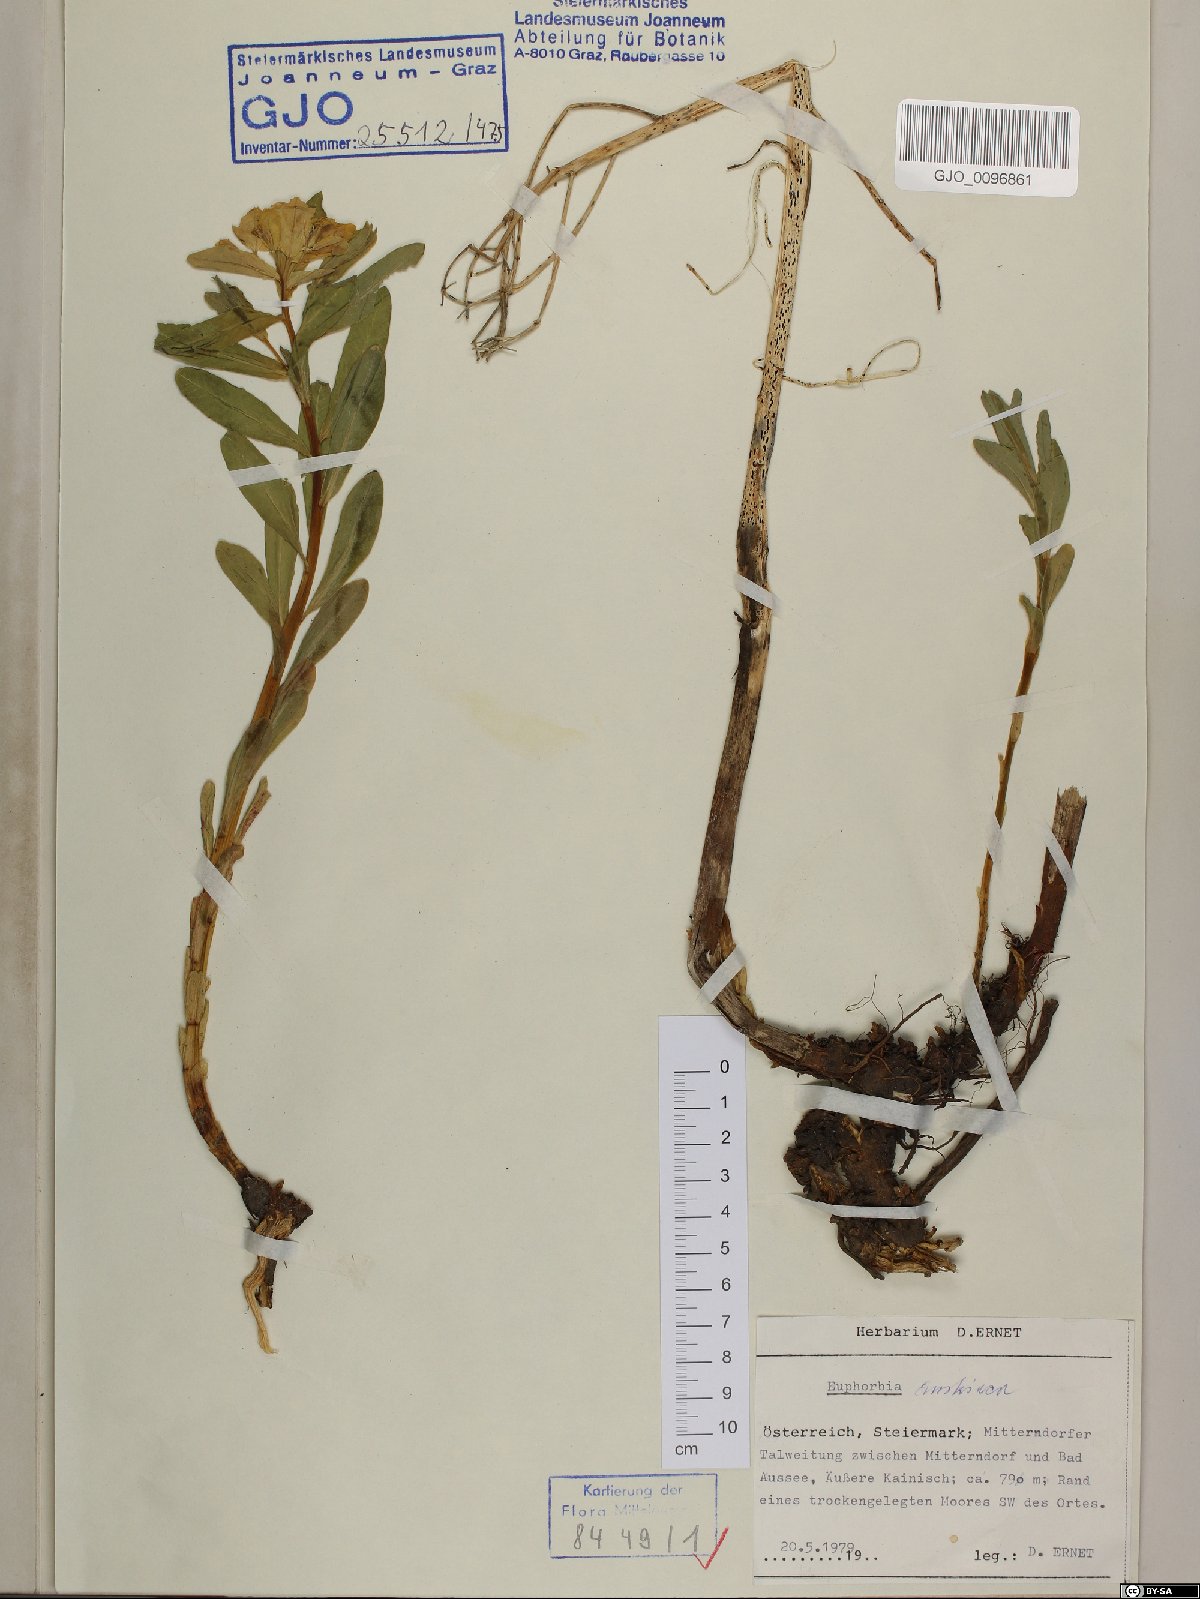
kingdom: Plantae
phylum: Tracheophyta
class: Magnoliopsida
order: Malpighiales
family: Euphorbiaceae
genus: Euphorbia
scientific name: Euphorbia austriaca
